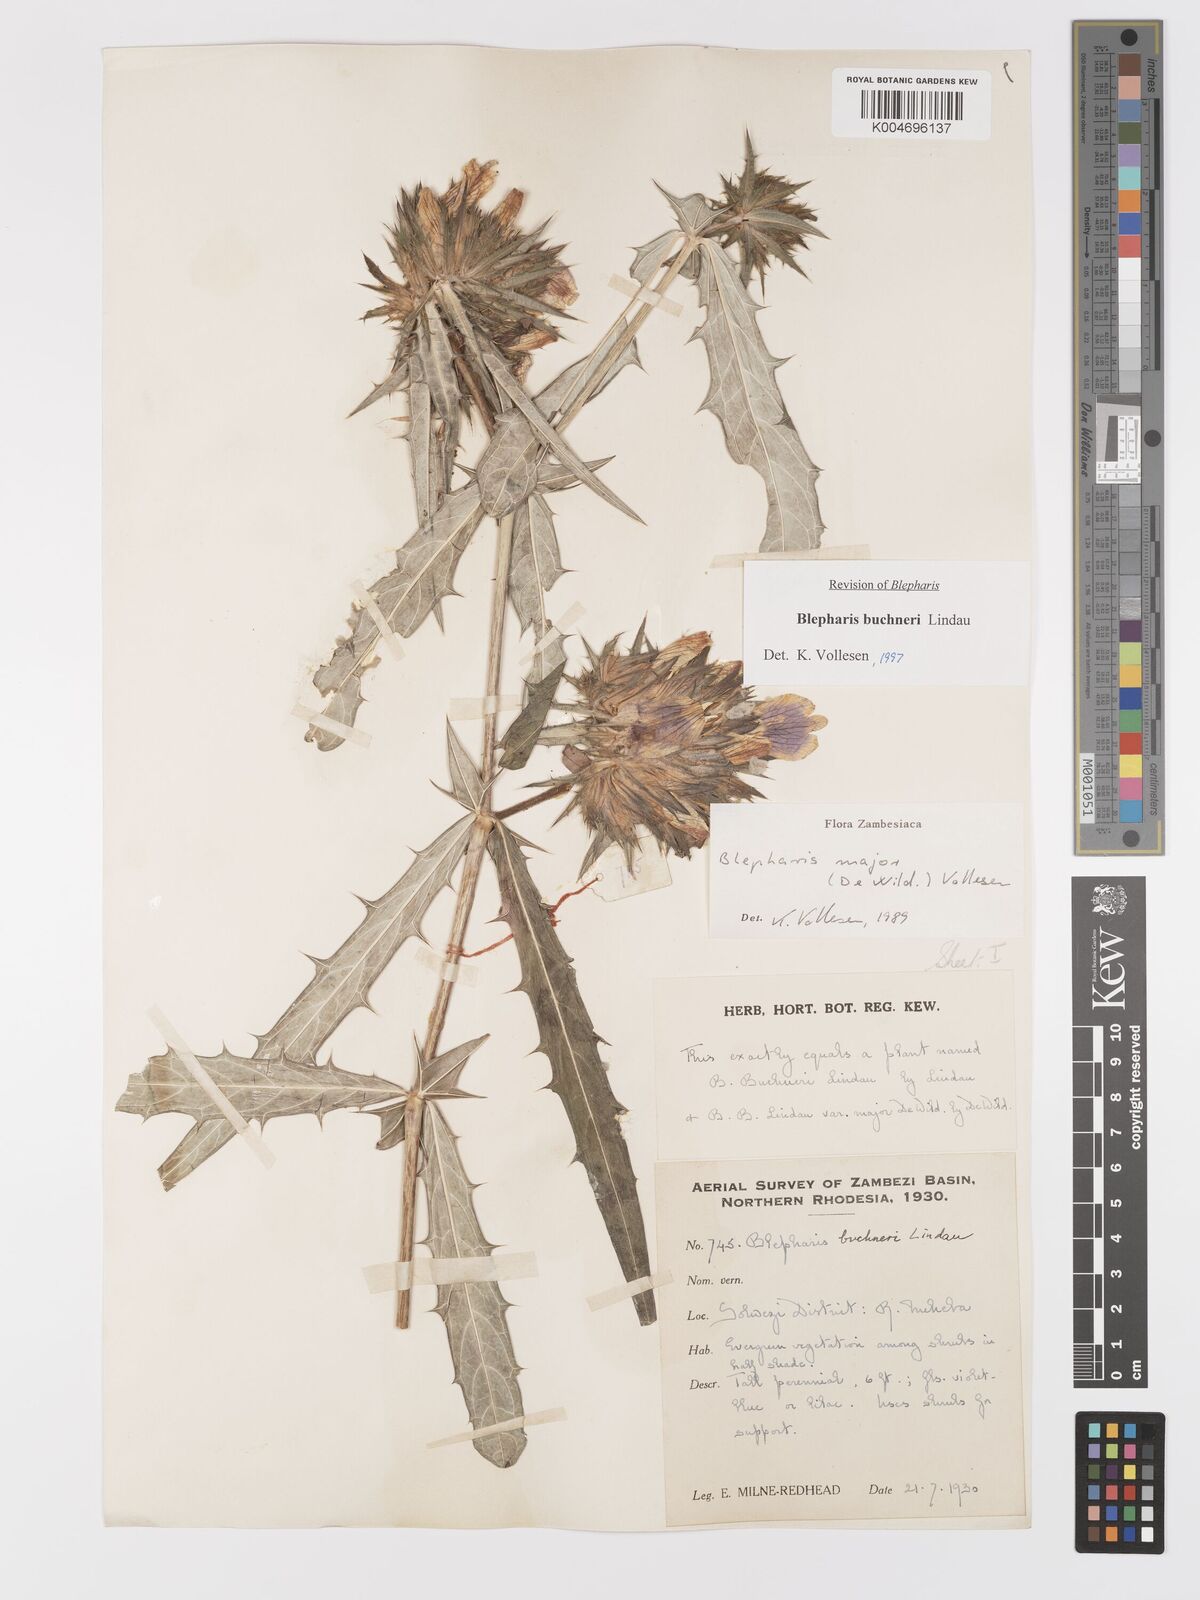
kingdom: Plantae
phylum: Tracheophyta
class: Magnoliopsida
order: Lamiales
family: Acanthaceae
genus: Blepharis
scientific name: Blepharis buchneri
